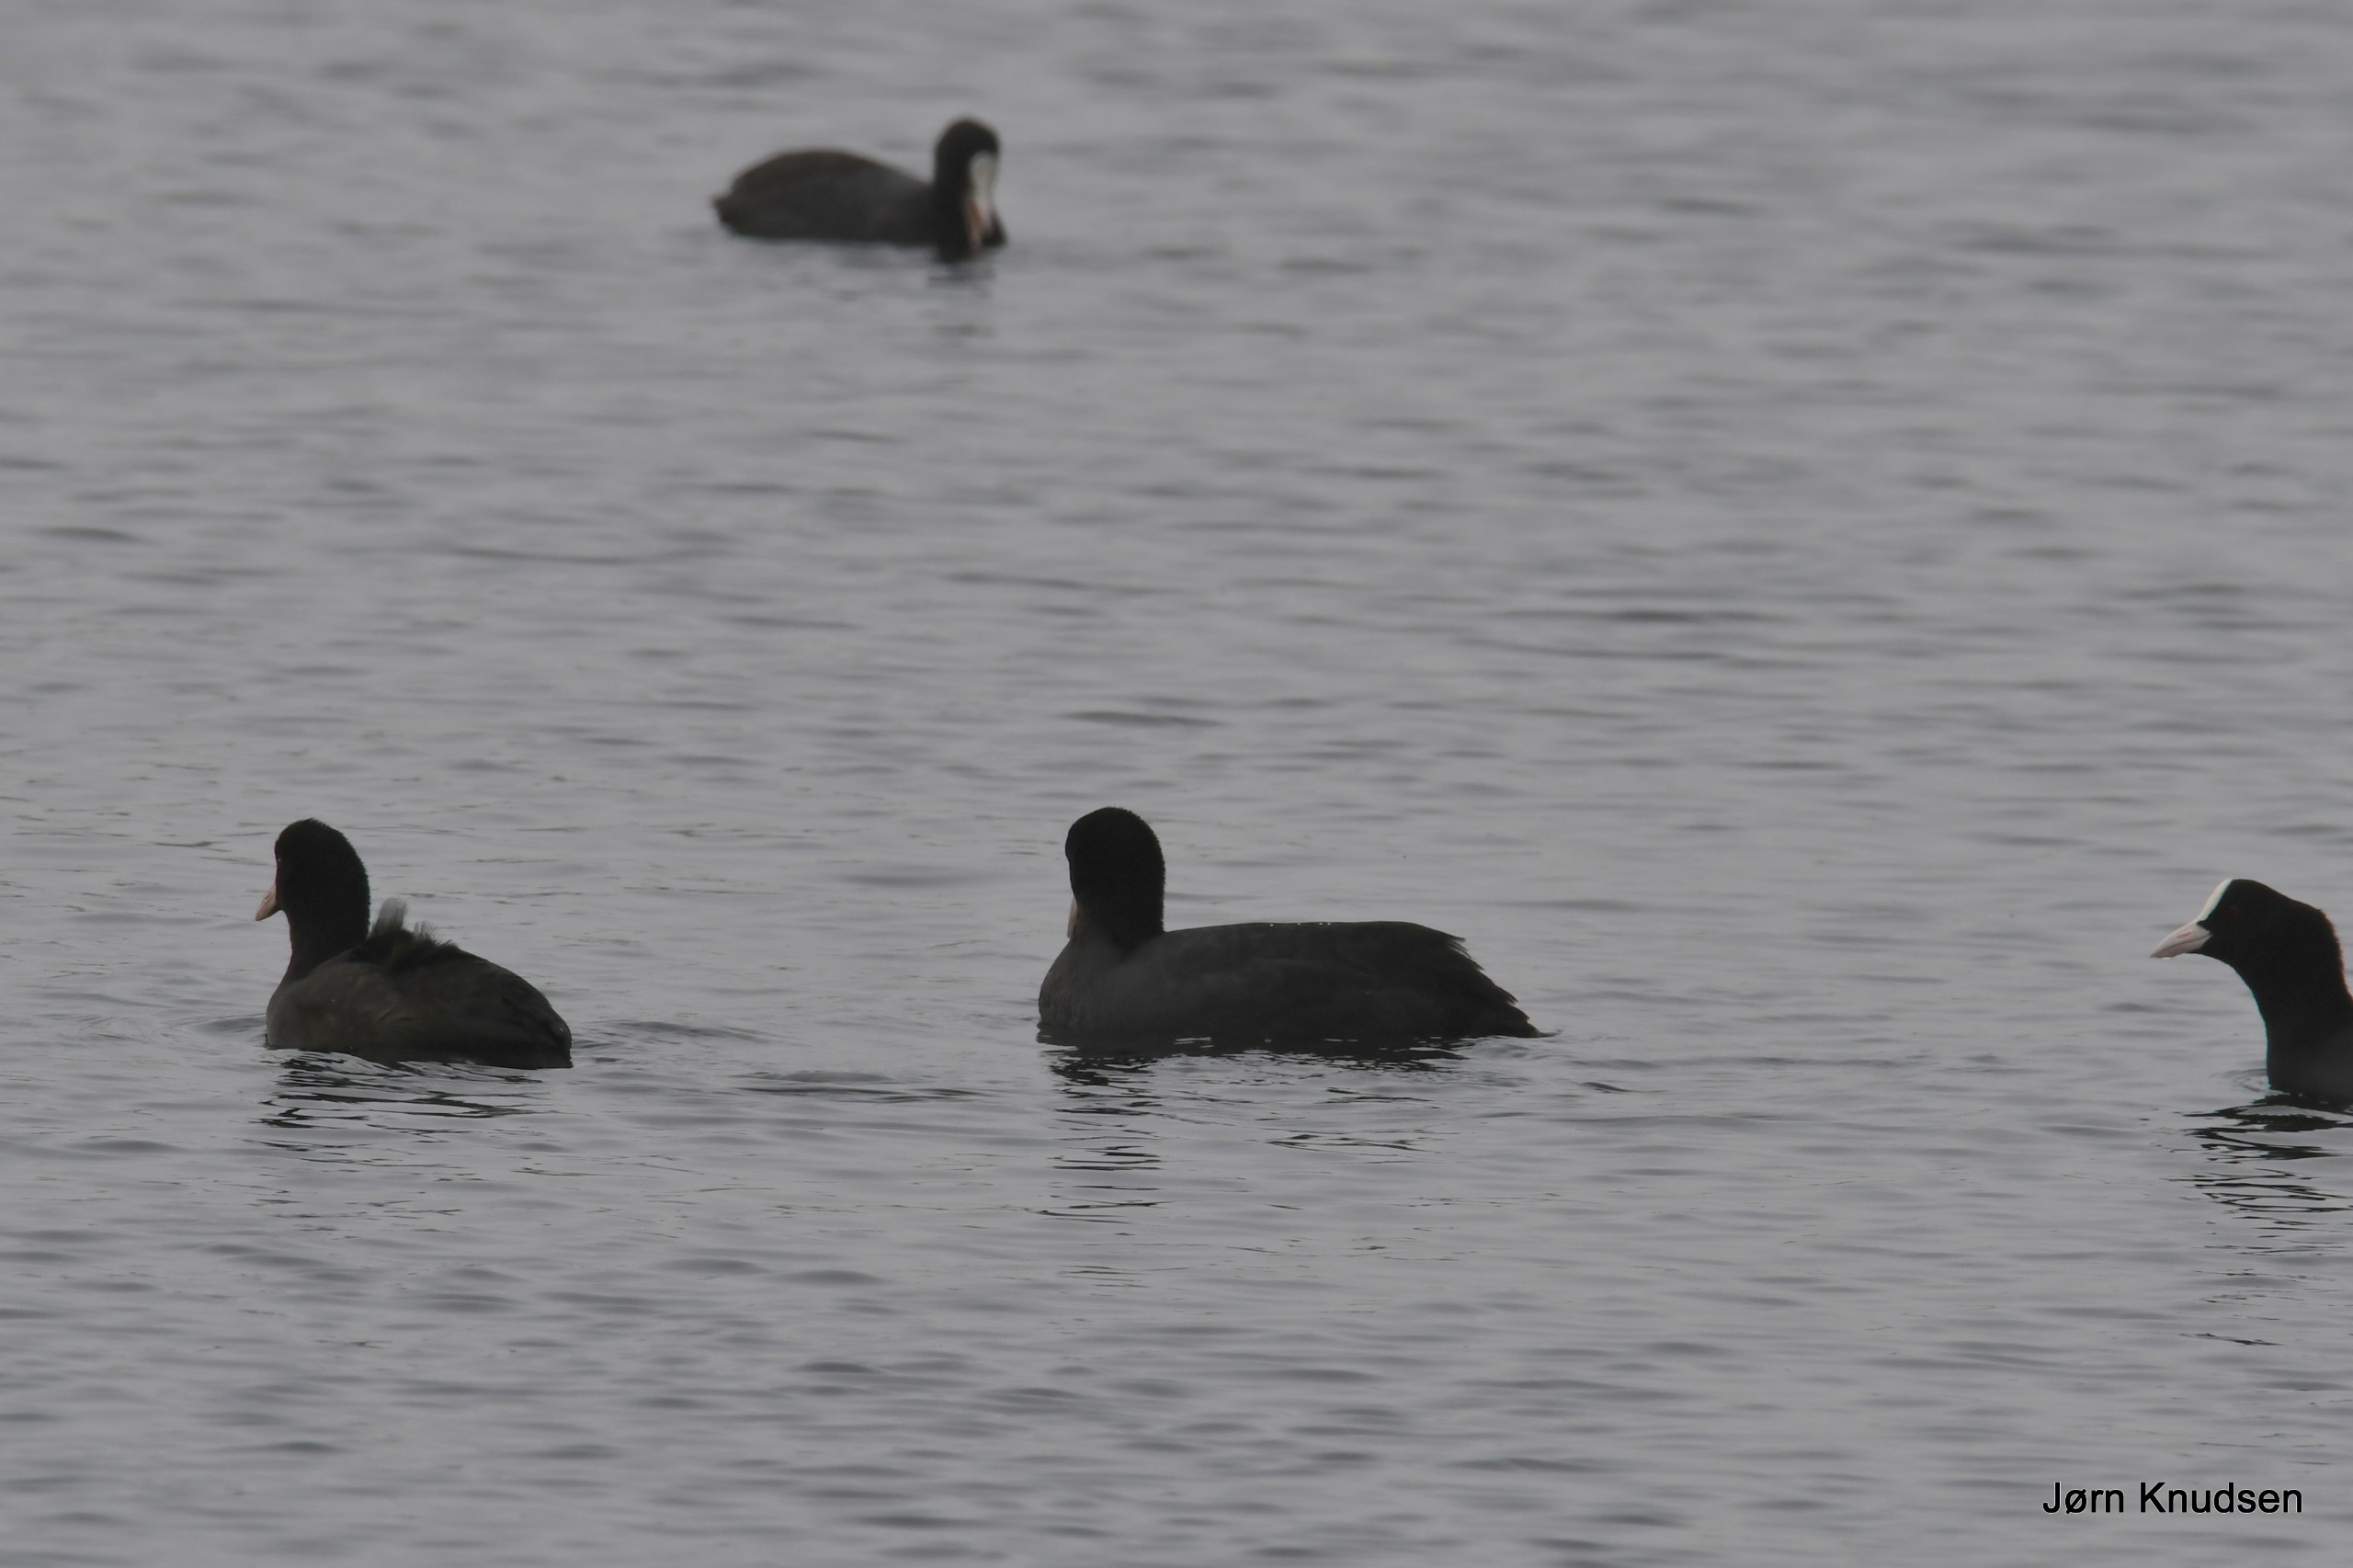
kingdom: Animalia
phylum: Chordata
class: Aves
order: Gruiformes
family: Rallidae
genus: Fulica
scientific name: Fulica atra
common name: Blishøne
